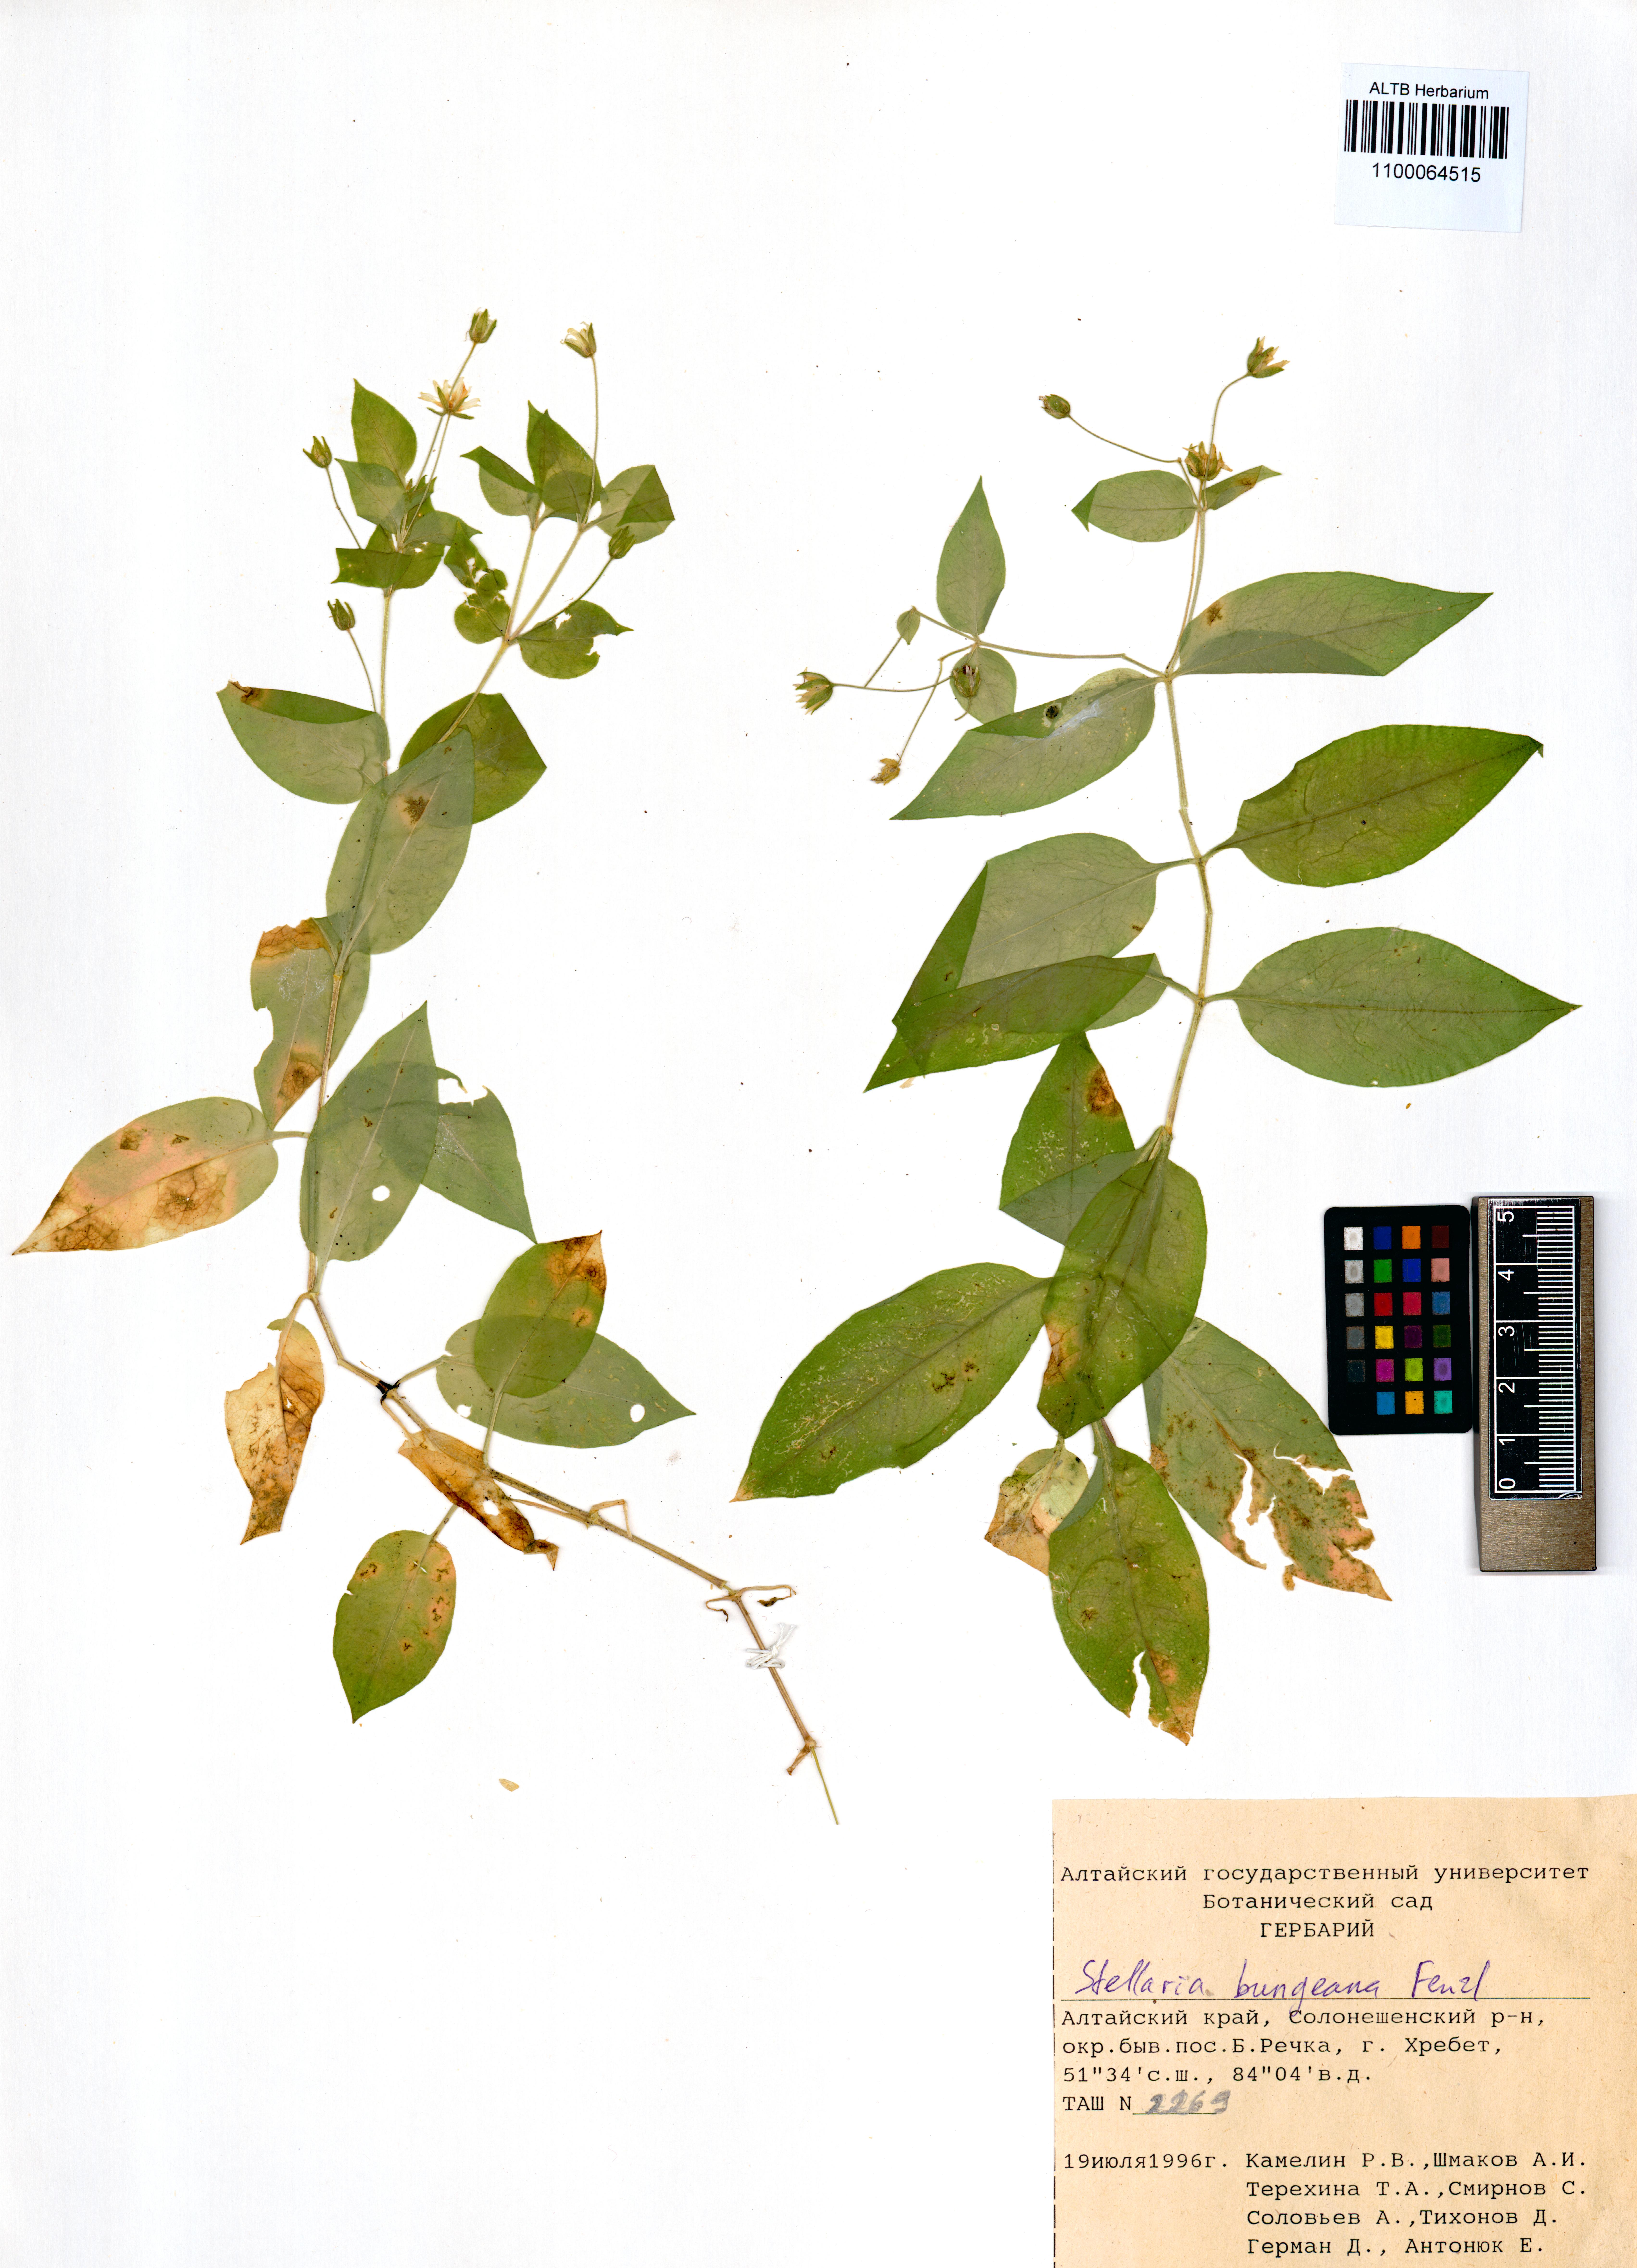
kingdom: Plantae
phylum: Tracheophyta
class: Magnoliopsida
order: Caryophyllales
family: Caryophyllaceae
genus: Stellaria
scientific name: Stellaria bungeana
